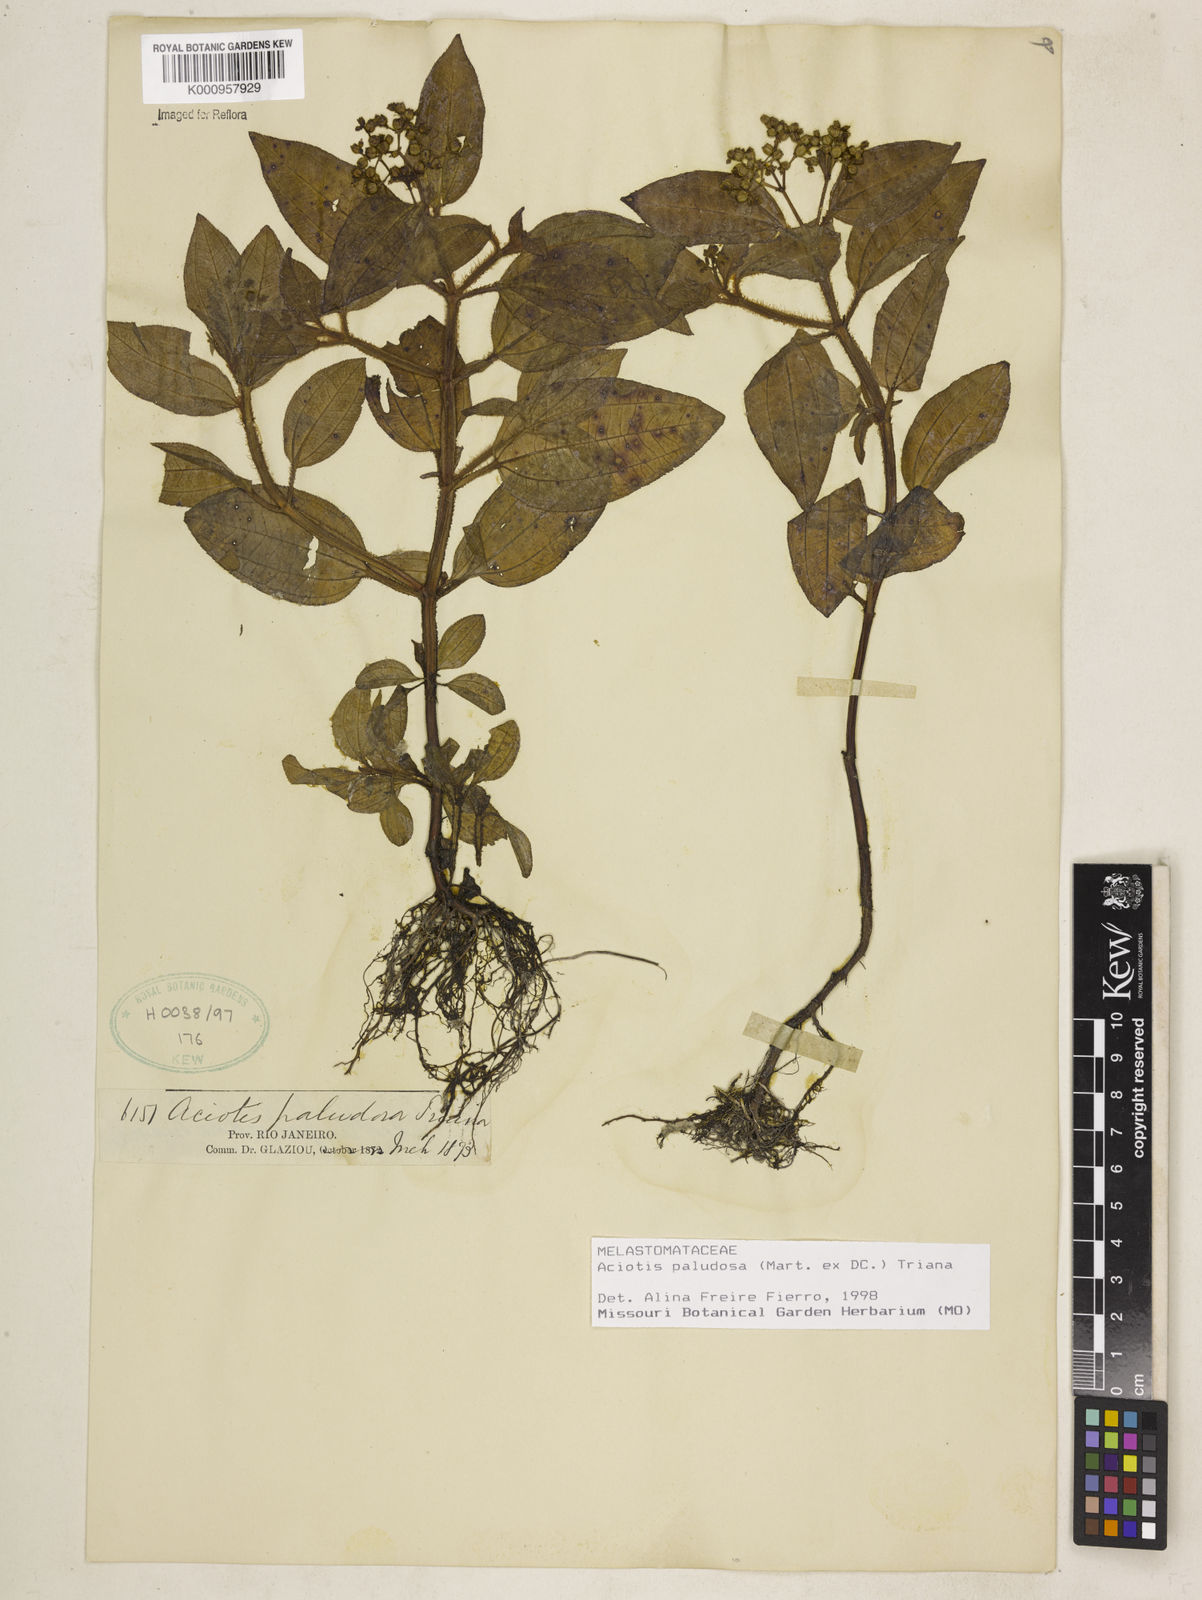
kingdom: Plantae
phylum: Tracheophyta
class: Magnoliopsida
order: Myrtales
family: Melastomataceae
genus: Aciotis
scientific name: Aciotis paludosa
